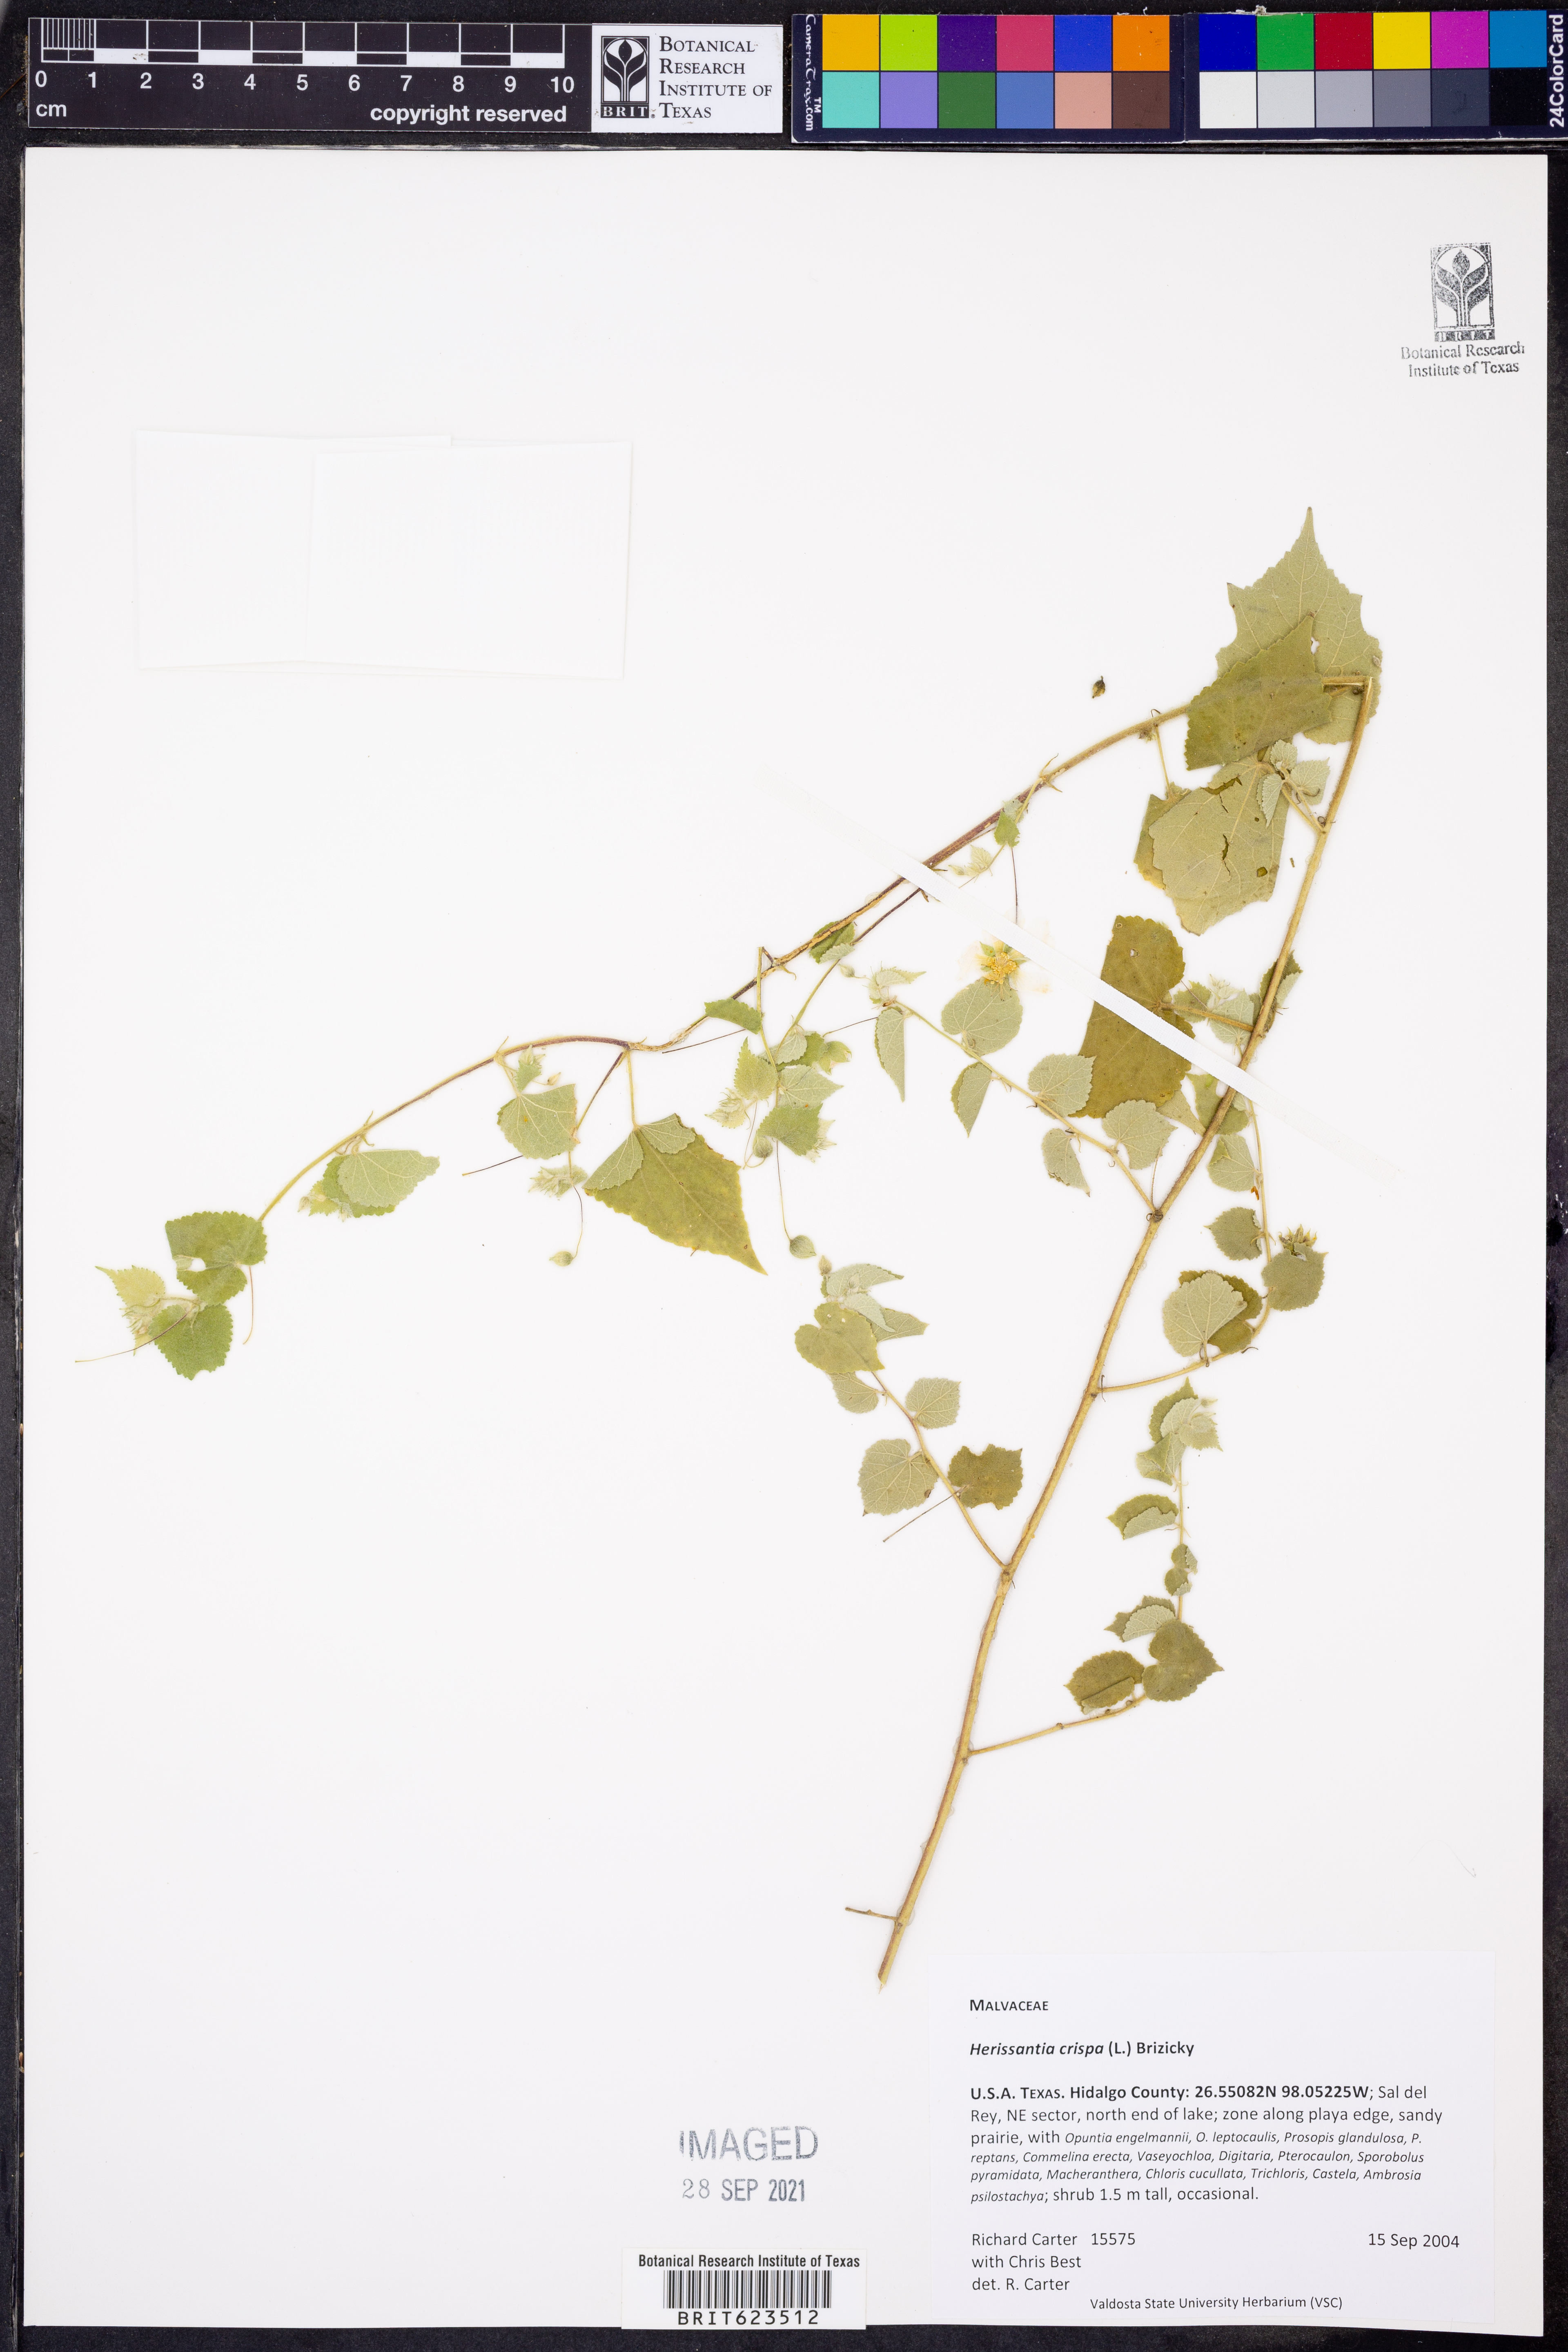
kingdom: Plantae
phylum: Tracheophyta
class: Magnoliopsida
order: Malvales
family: Malvaceae
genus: Herissantia
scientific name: Herissantia crispa
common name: Bladdermallow
